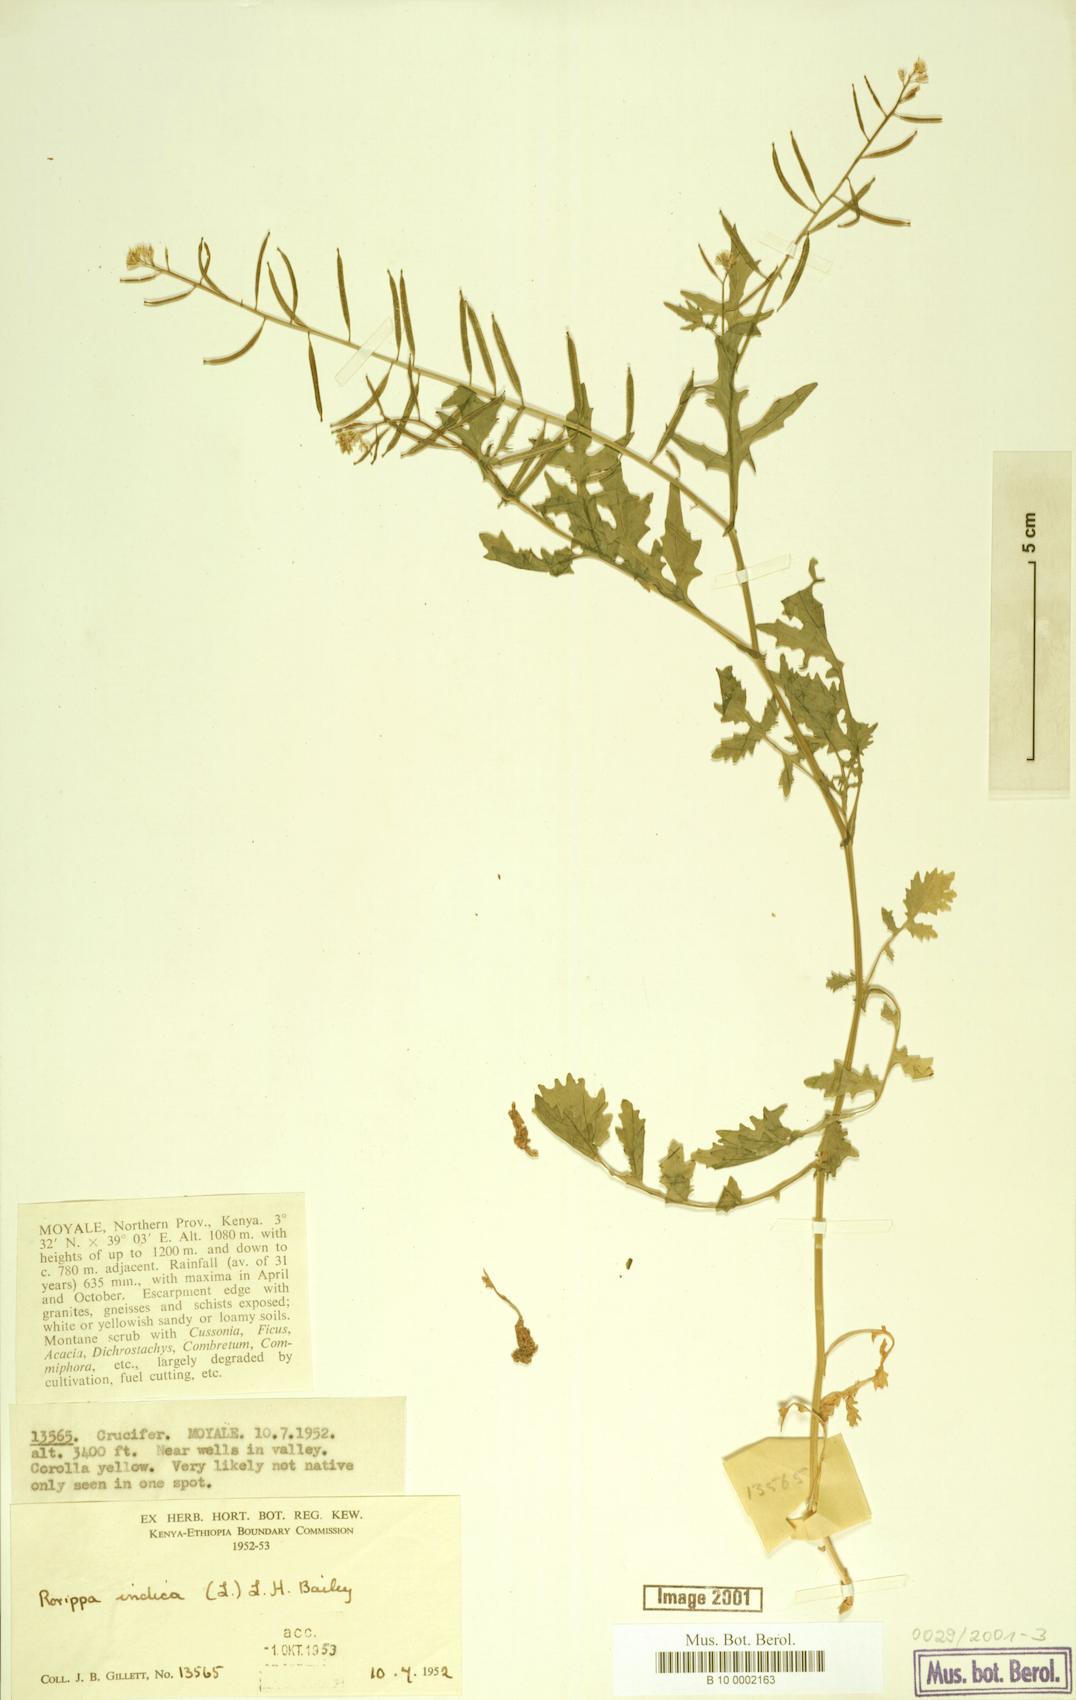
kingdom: Plantae
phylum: Tracheophyta
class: Magnoliopsida
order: Brassicales
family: Brassicaceae
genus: Rorippa
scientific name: Rorippa indica
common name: Variableleaf yellowcress
